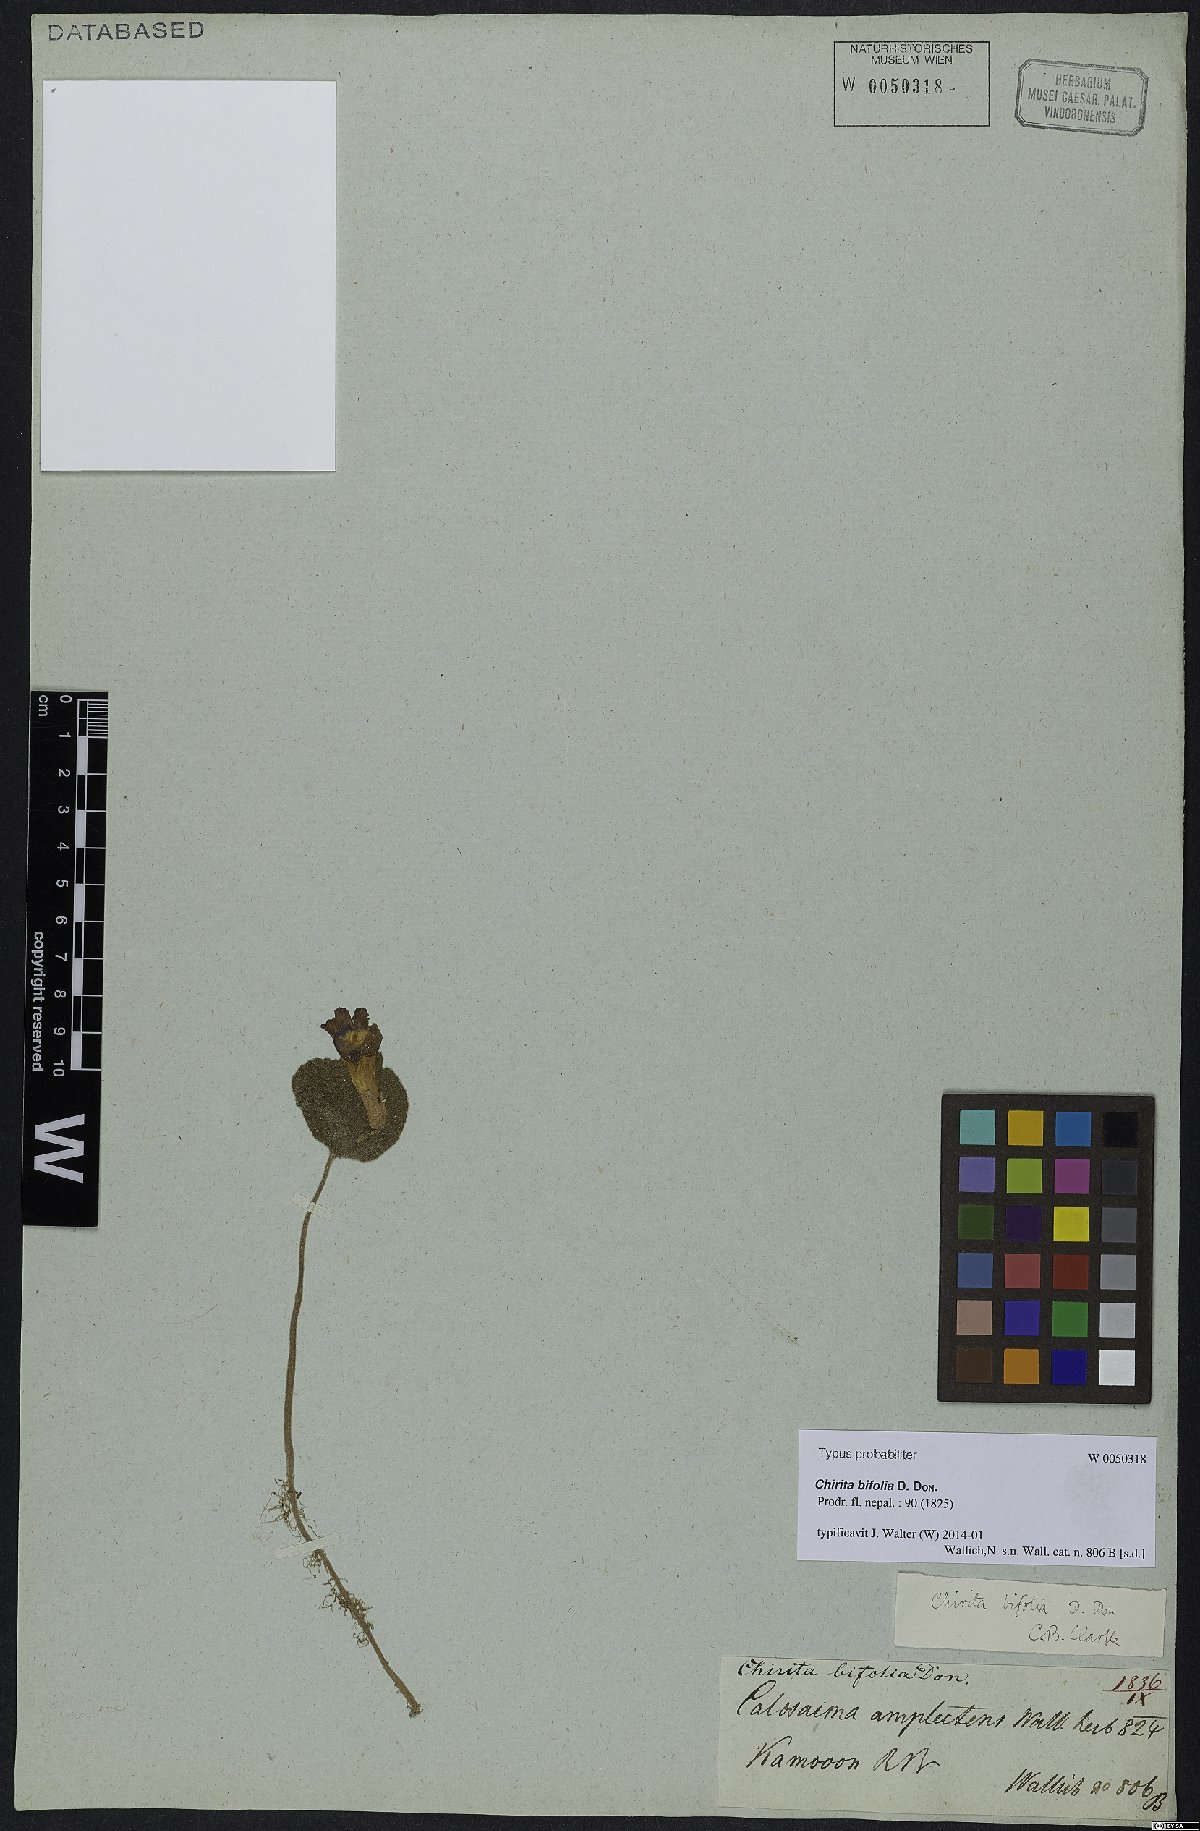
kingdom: Plantae
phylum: Tracheophyta
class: Magnoliopsida
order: Lamiales
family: Gesneriaceae
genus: Henckelia
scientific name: Henckelia bifolia
